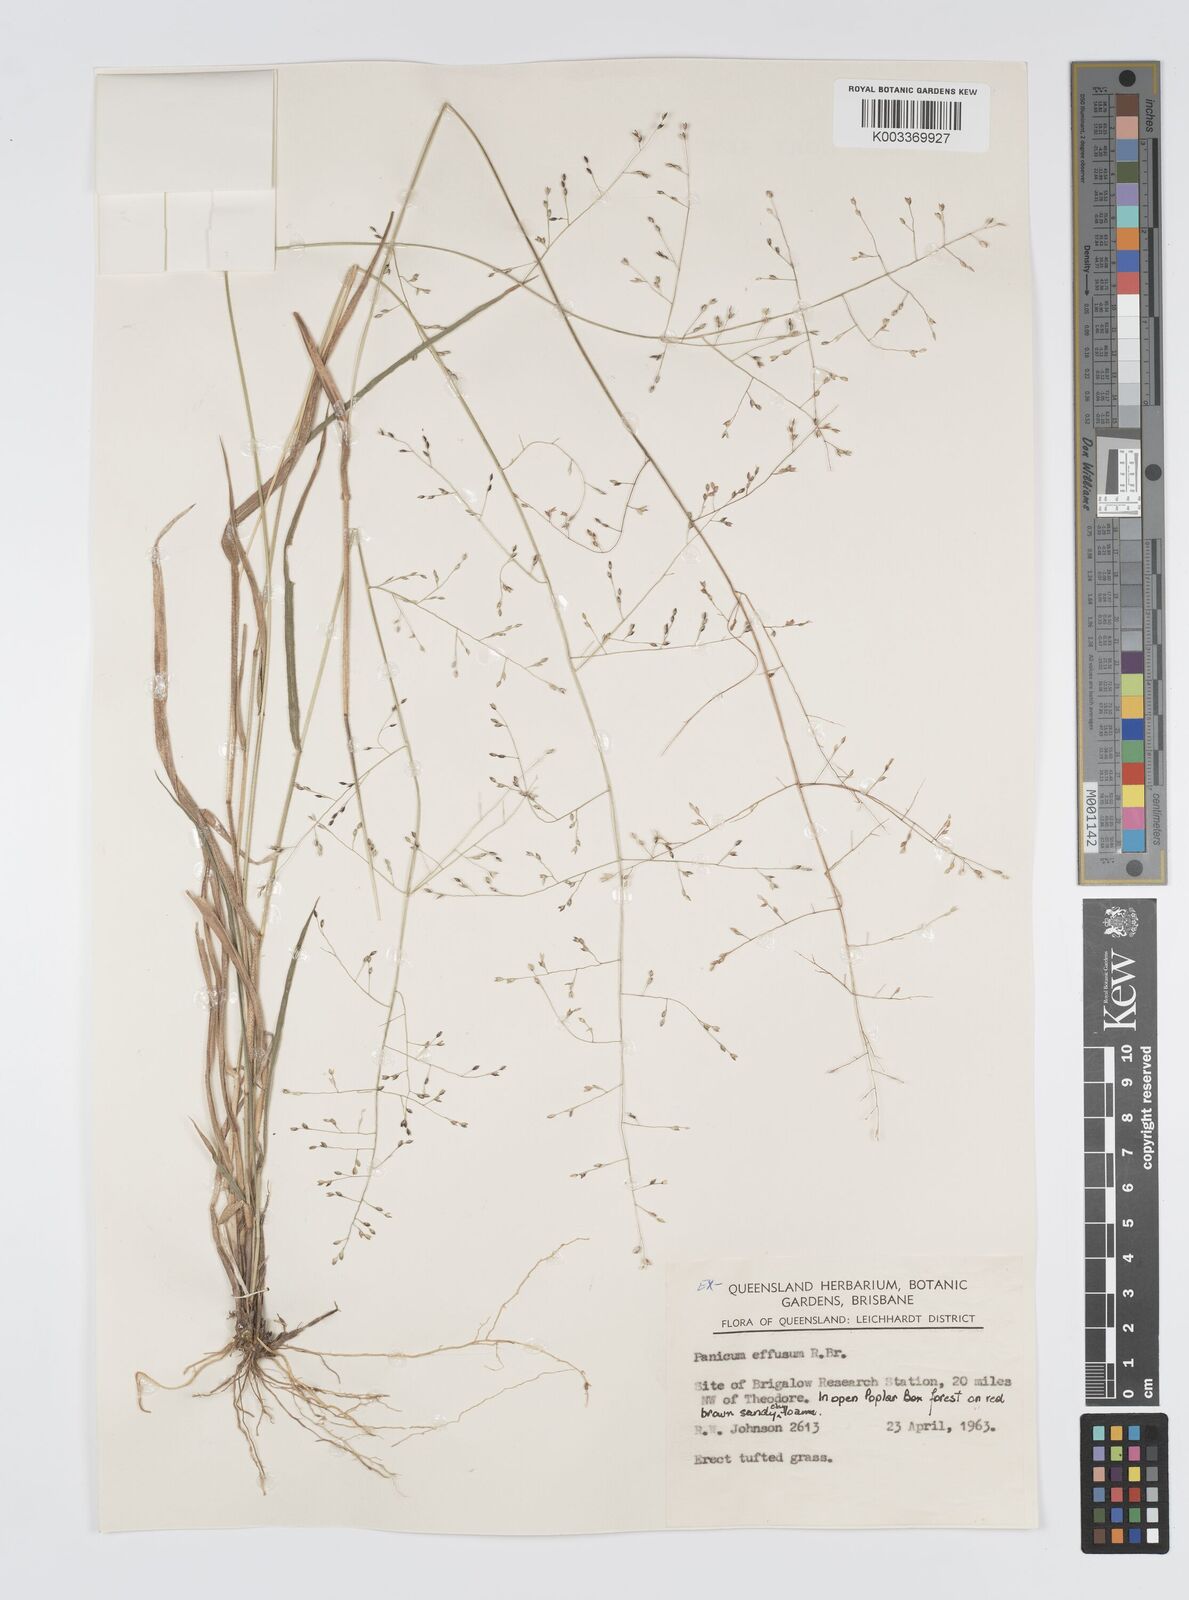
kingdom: Plantae
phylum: Tracheophyta
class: Liliopsida
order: Poales
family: Poaceae
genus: Panicum
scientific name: Panicum effusum
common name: Hairy panic grass
